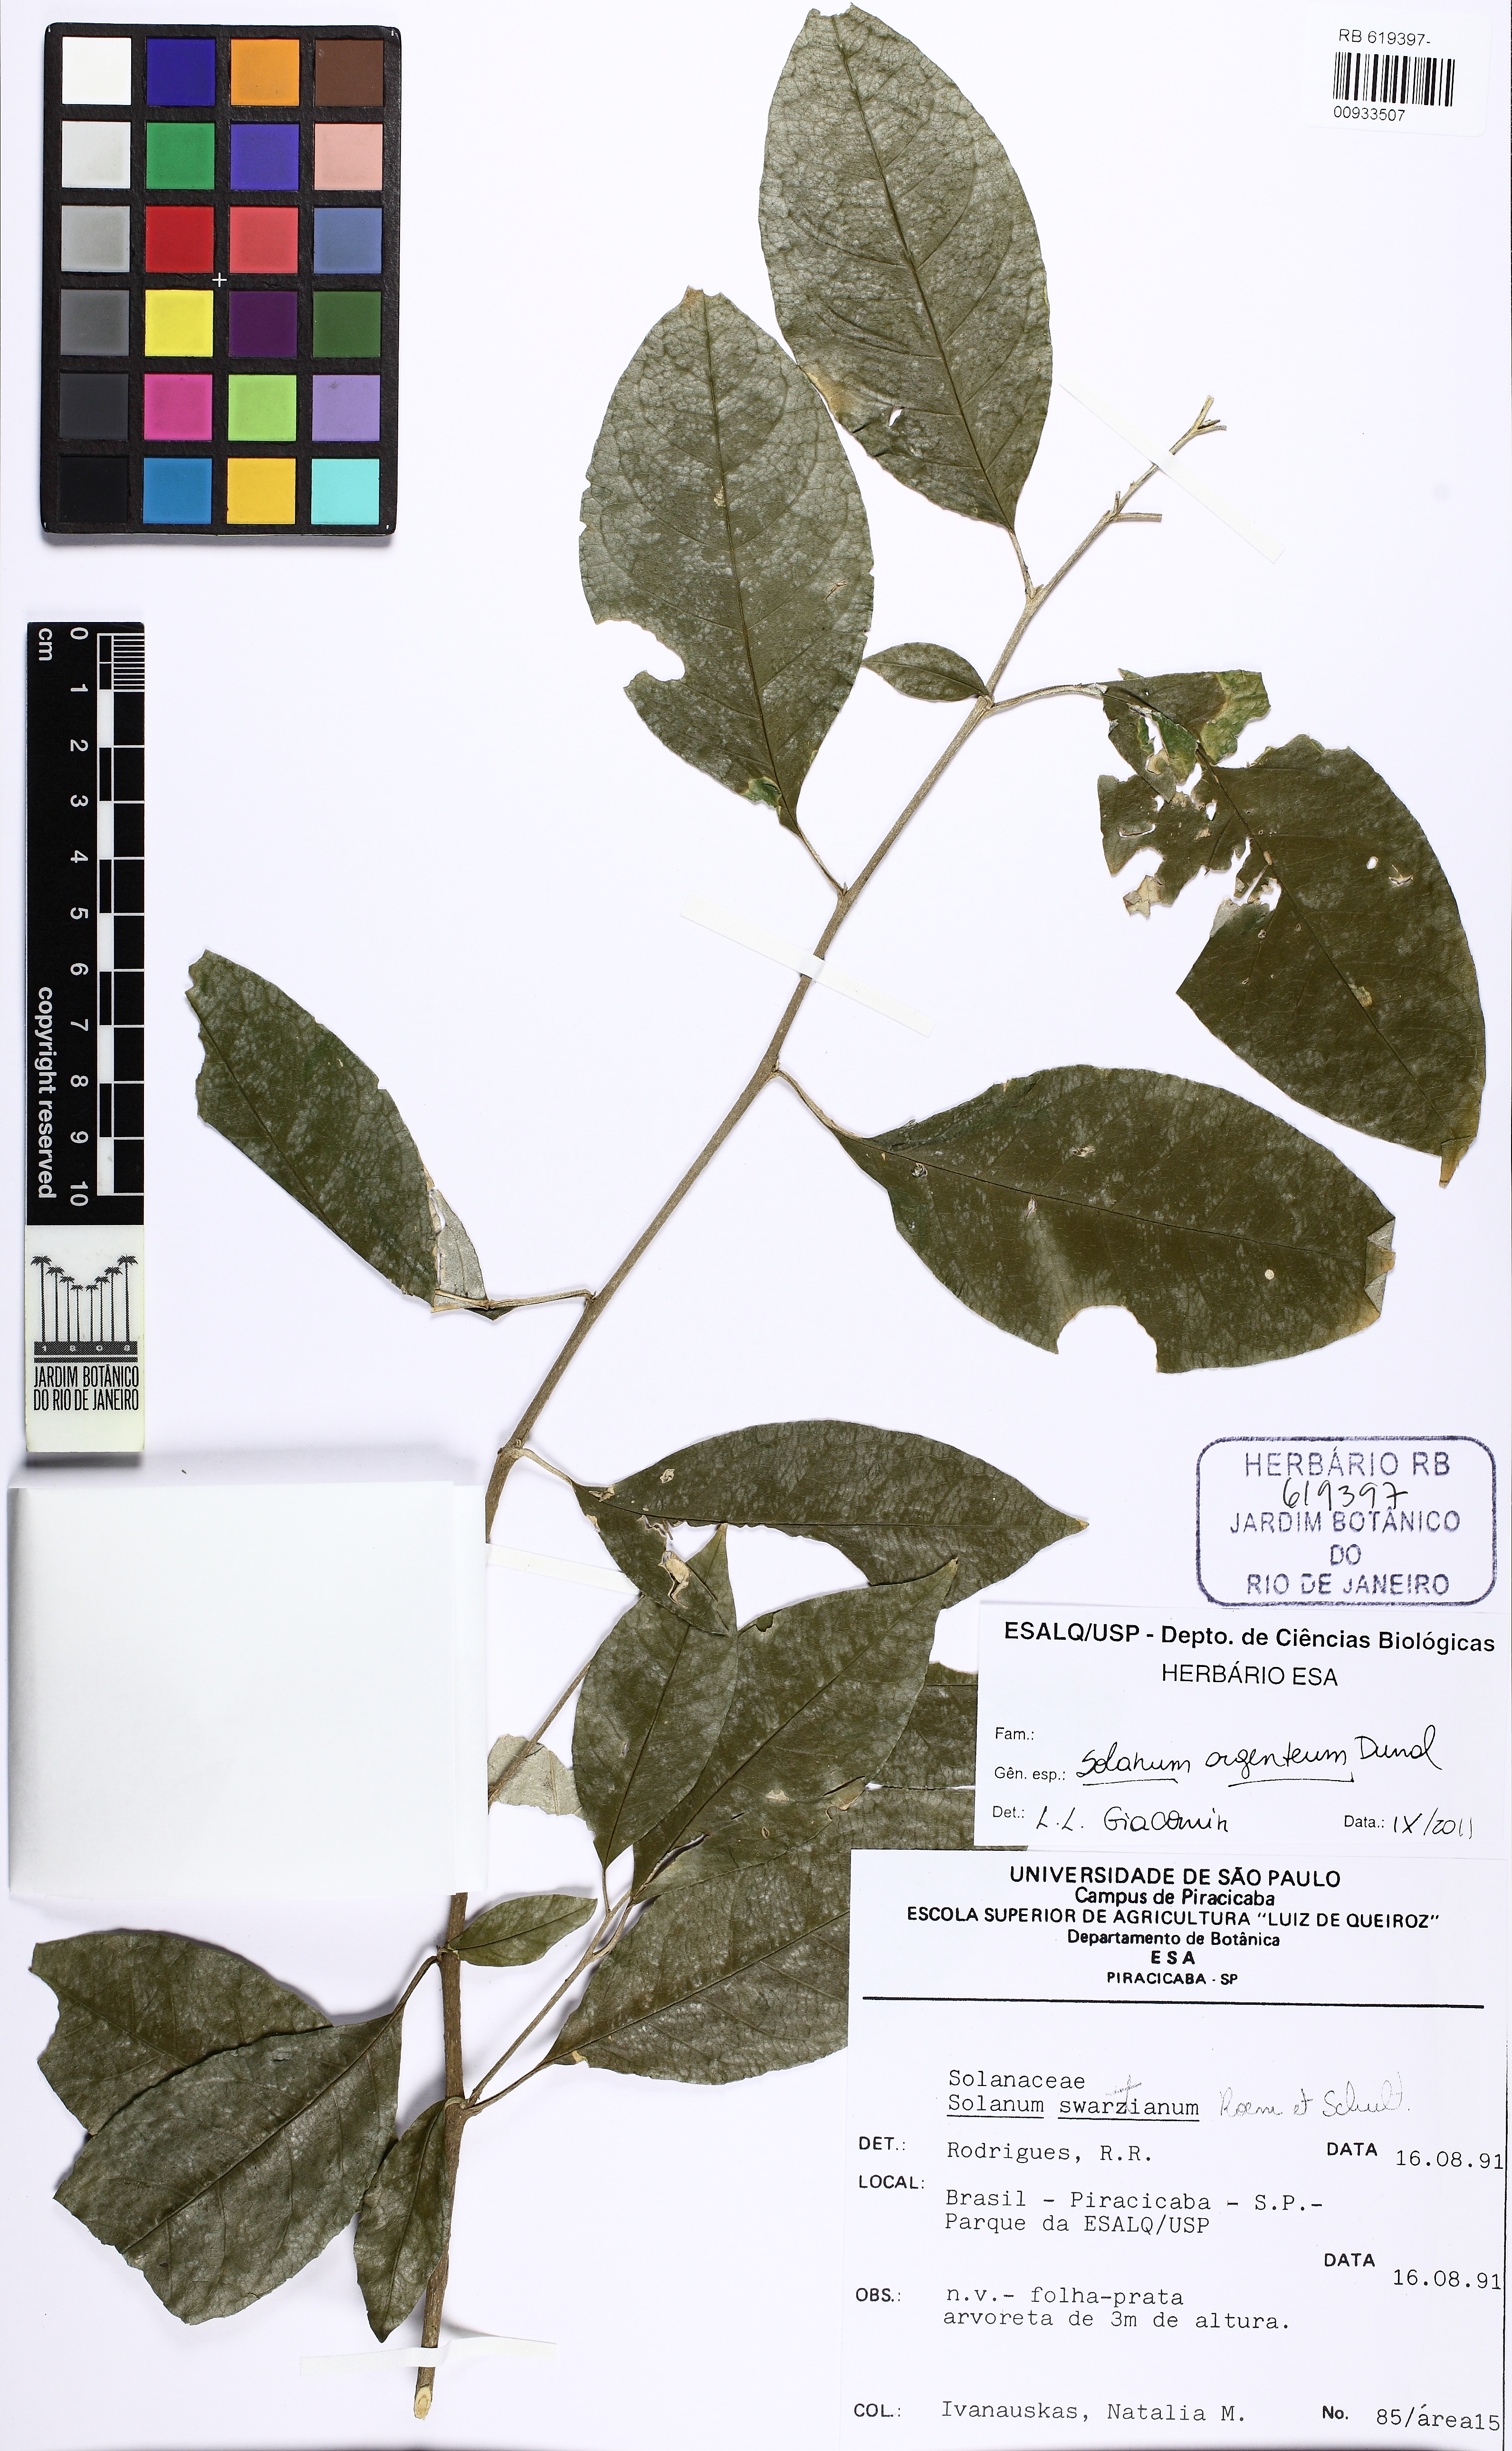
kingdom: Plantae
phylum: Tracheophyta
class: Magnoliopsida
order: Solanales
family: Solanaceae
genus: Solanum
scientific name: Solanum swartzianum
